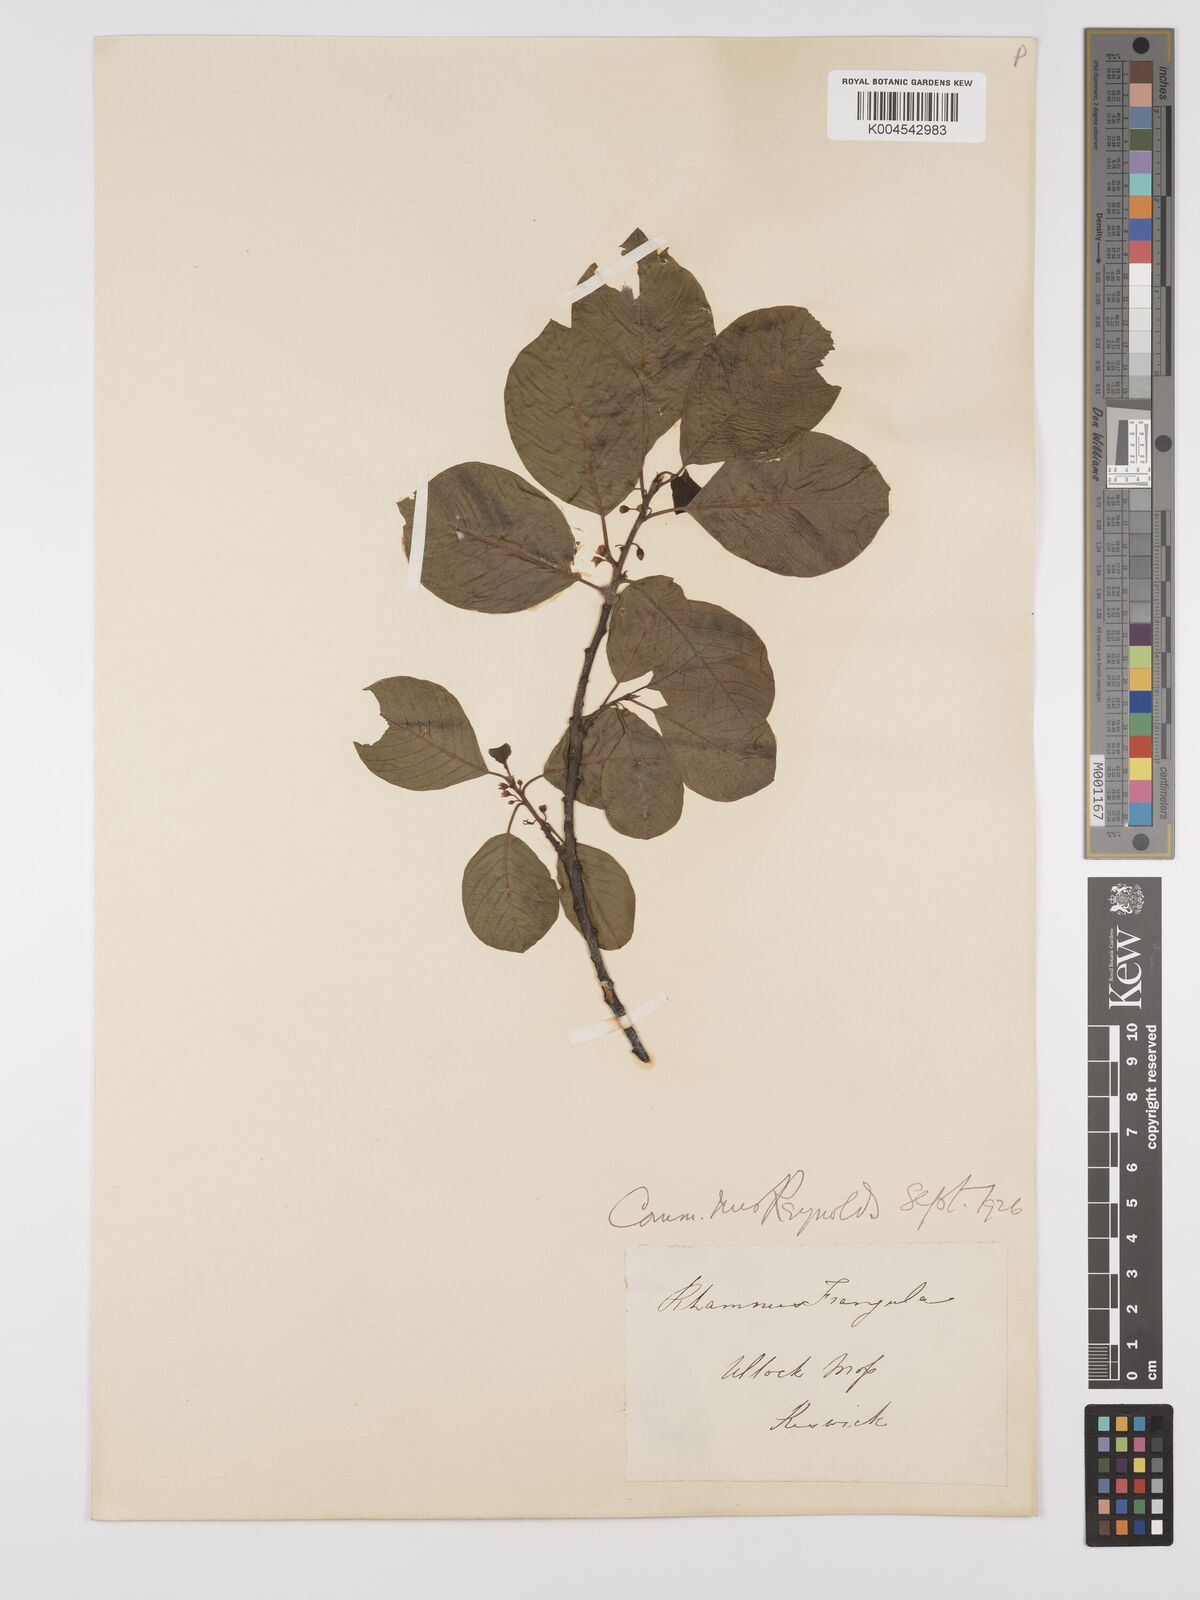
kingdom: Plantae
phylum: Tracheophyta
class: Magnoliopsida
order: Rosales
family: Rhamnaceae
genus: Frangula
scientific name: Frangula alnus
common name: Alder buckthorn
